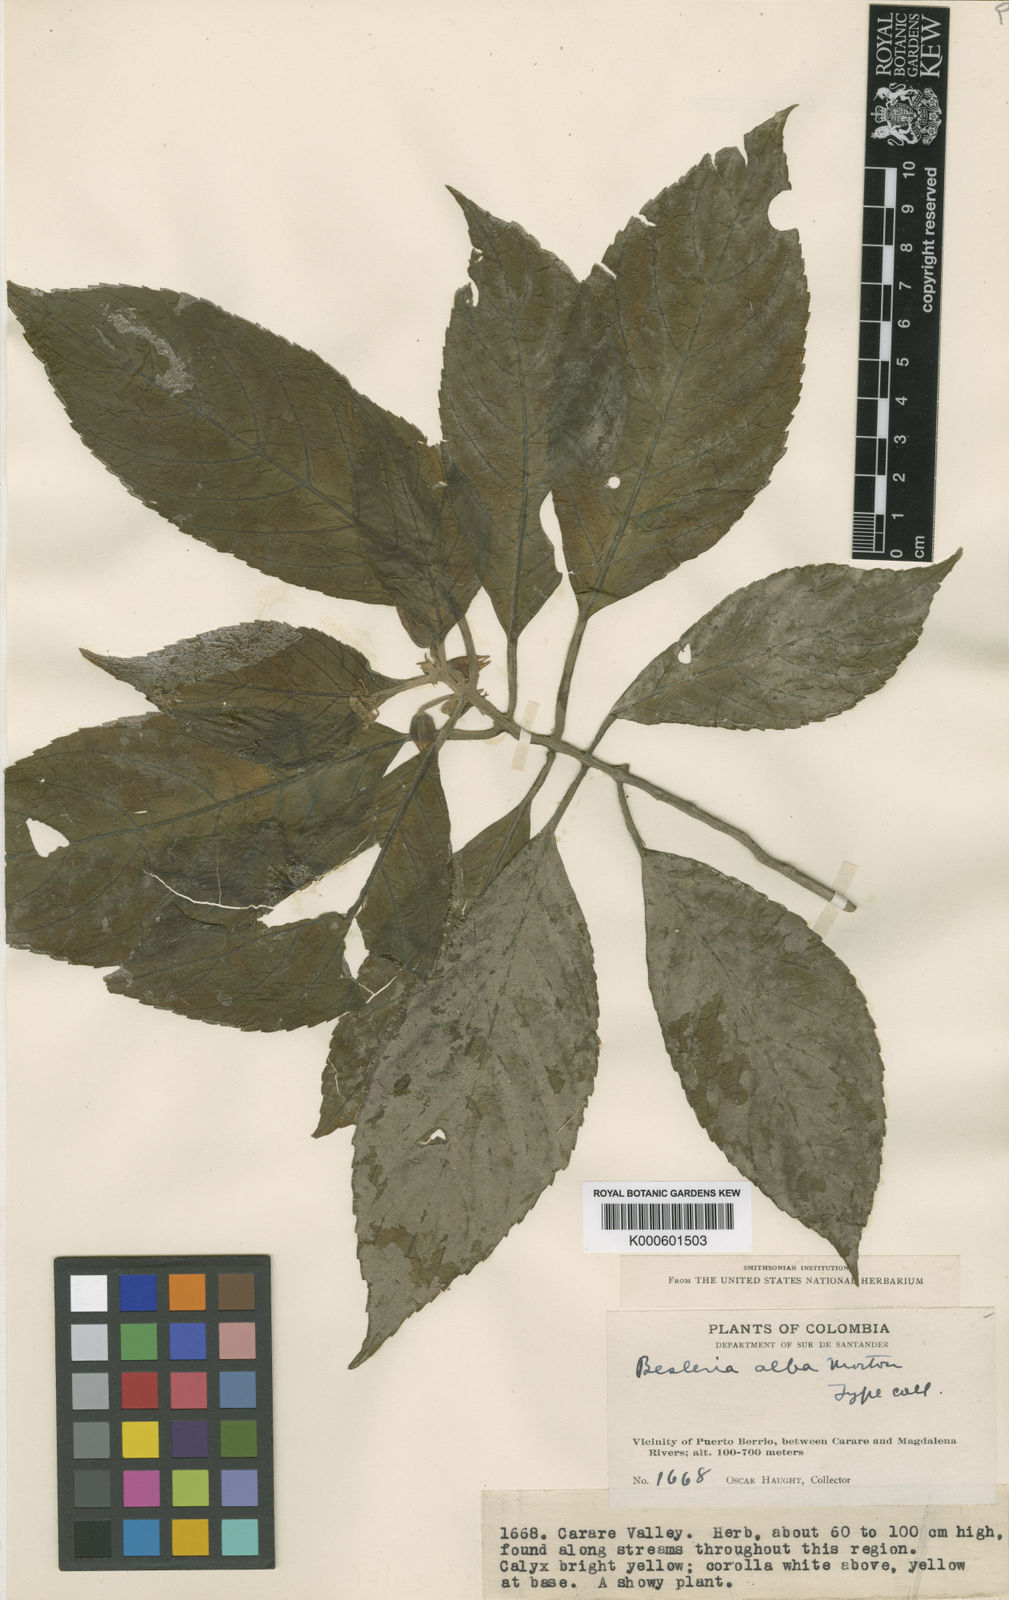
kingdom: Plantae
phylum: Tracheophyta
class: Magnoliopsida
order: Lamiales
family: Gesneriaceae
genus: Besleria
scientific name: Besleria
